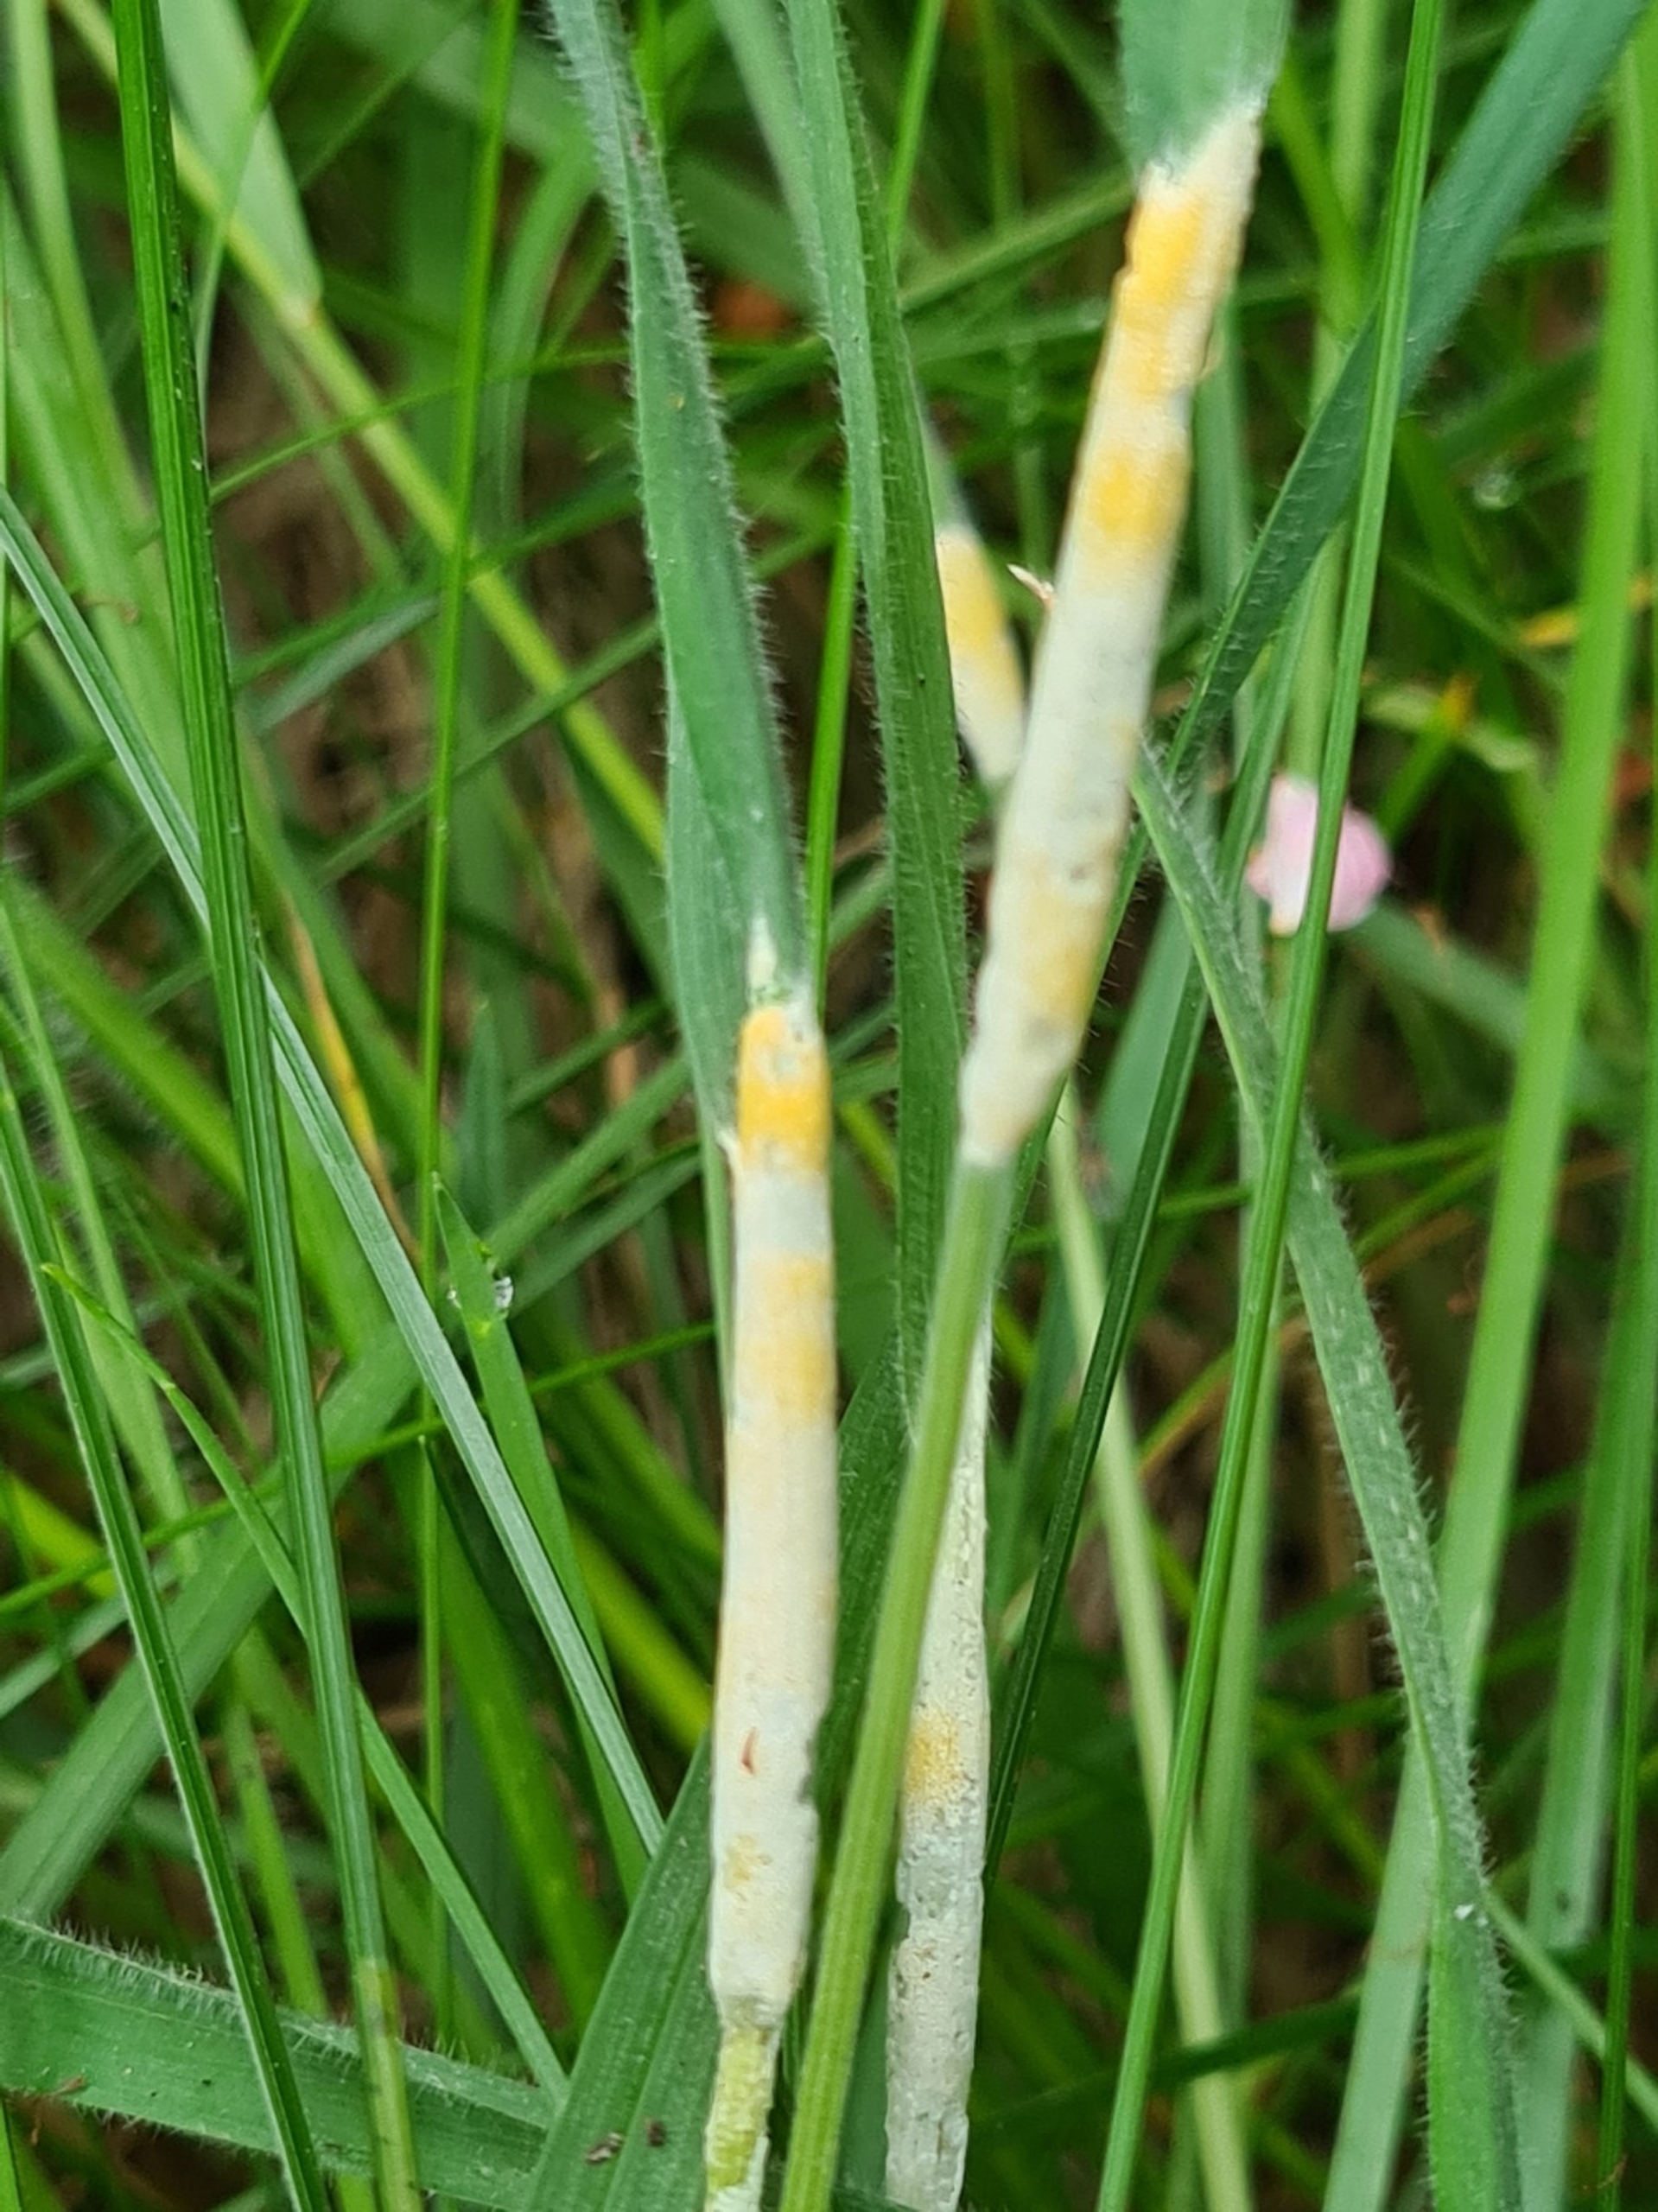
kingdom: Fungi
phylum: Ascomycota
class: Sordariomycetes
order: Hypocreales
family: Clavicipitaceae
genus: Epichloe
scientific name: Epichloe clarkii
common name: Fløjlsgræs-kernerør
